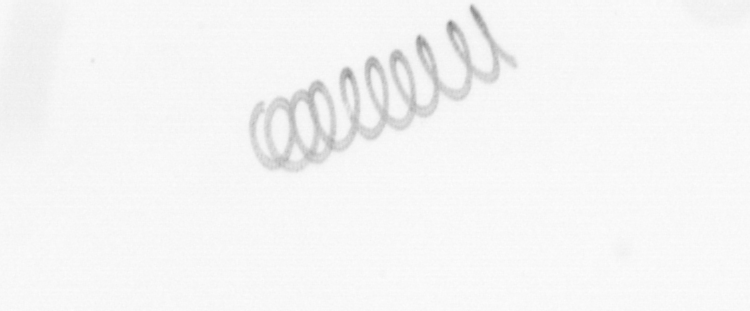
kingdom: Chromista
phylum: Ochrophyta
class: Bacillariophyceae
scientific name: Bacillariophyceae
